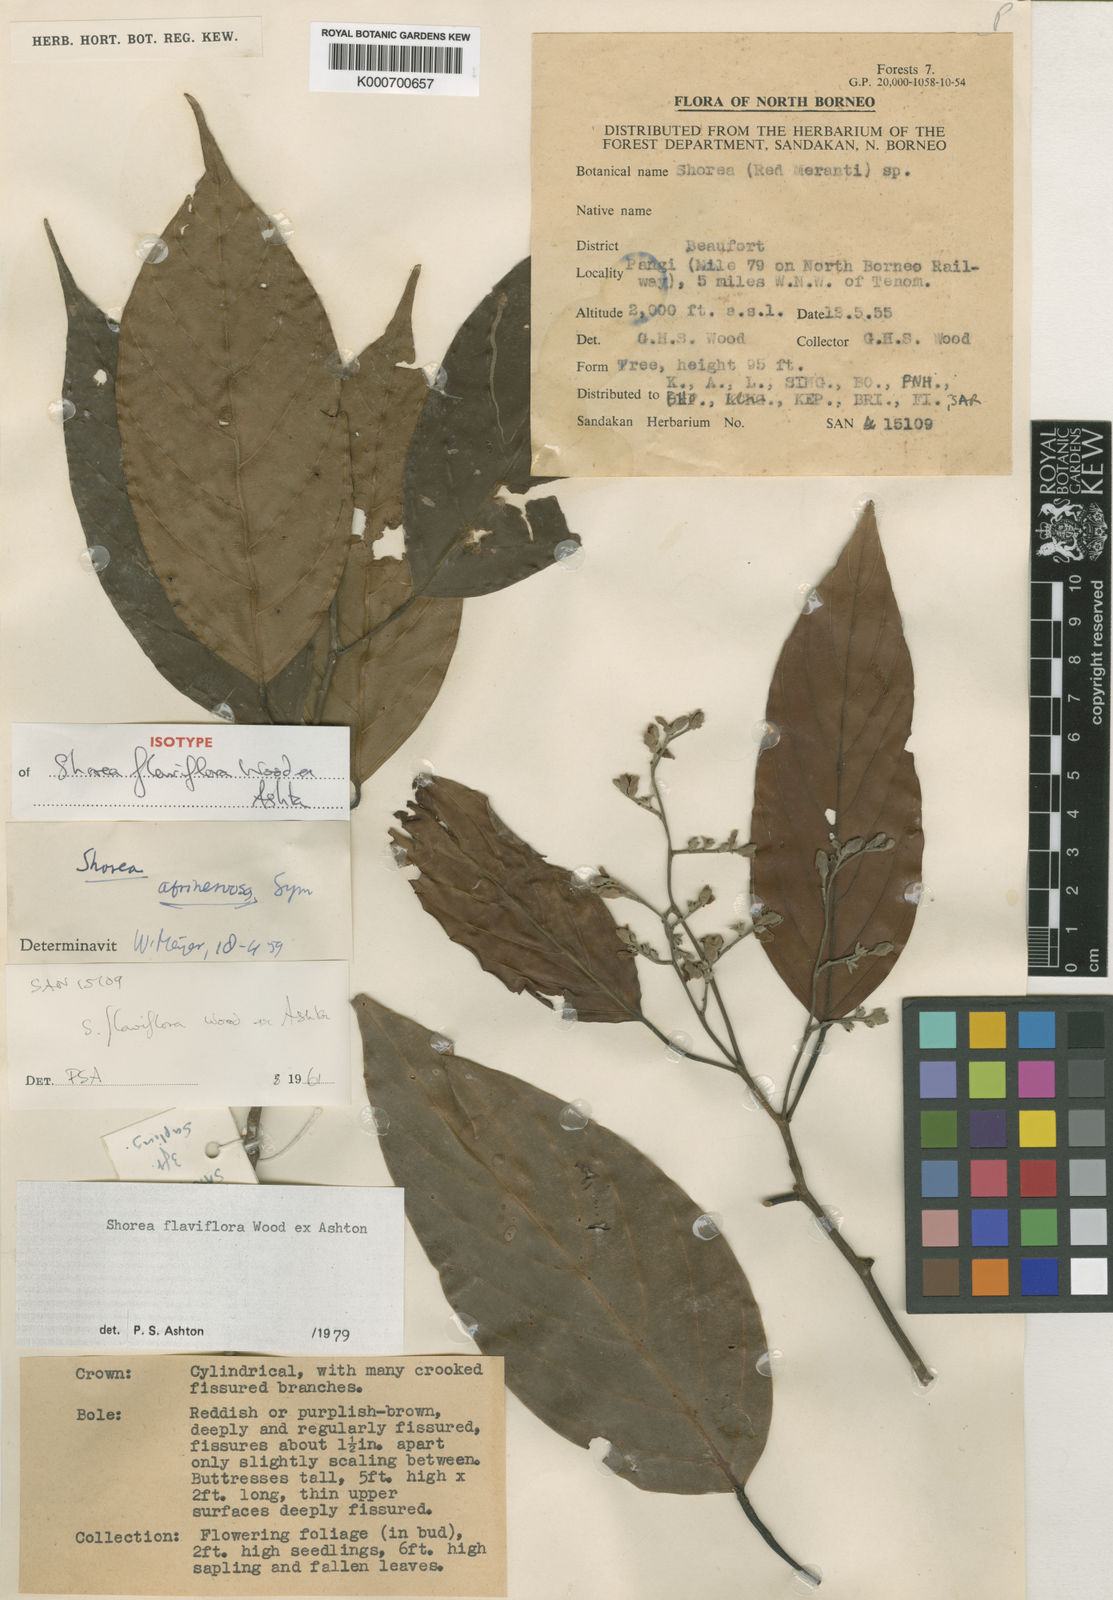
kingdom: Plantae
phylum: Tracheophyta
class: Magnoliopsida
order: Malvales
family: Dipterocarpaceae
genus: Shorea
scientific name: Shorea flaviflora
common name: Dark red meranti
